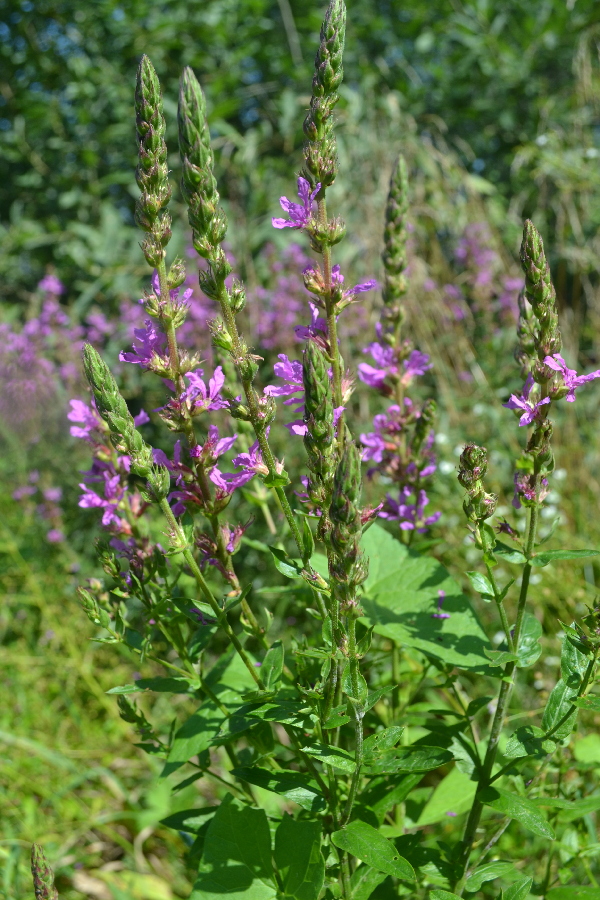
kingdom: Plantae
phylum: Tracheophyta
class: Magnoliopsida
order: Myrtales
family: Lythraceae
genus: Lythrum
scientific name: Lythrum salicaria
